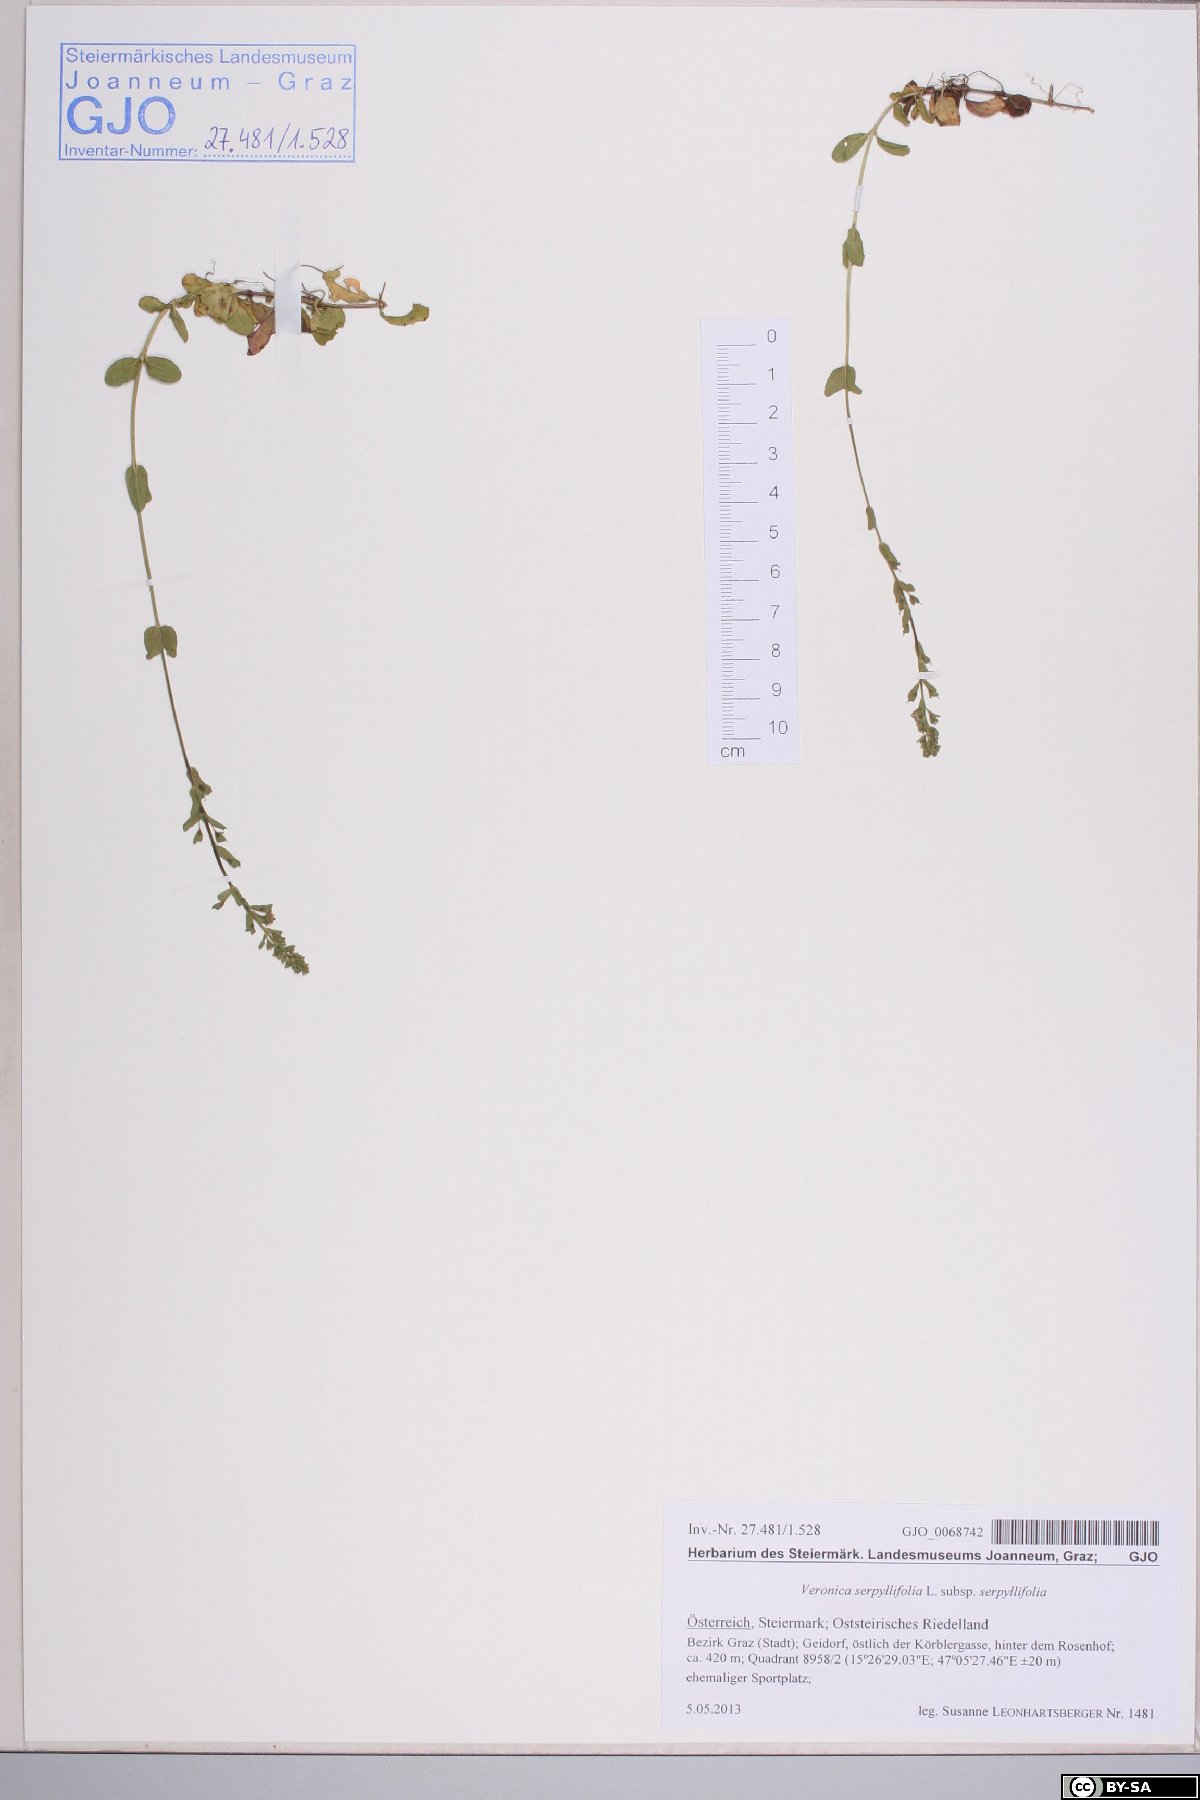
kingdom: Plantae
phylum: Tracheophyta
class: Magnoliopsida
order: Lamiales
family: Plantaginaceae
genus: Veronica
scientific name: Veronica serpyllifolia
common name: Thyme-leaved speedwell
